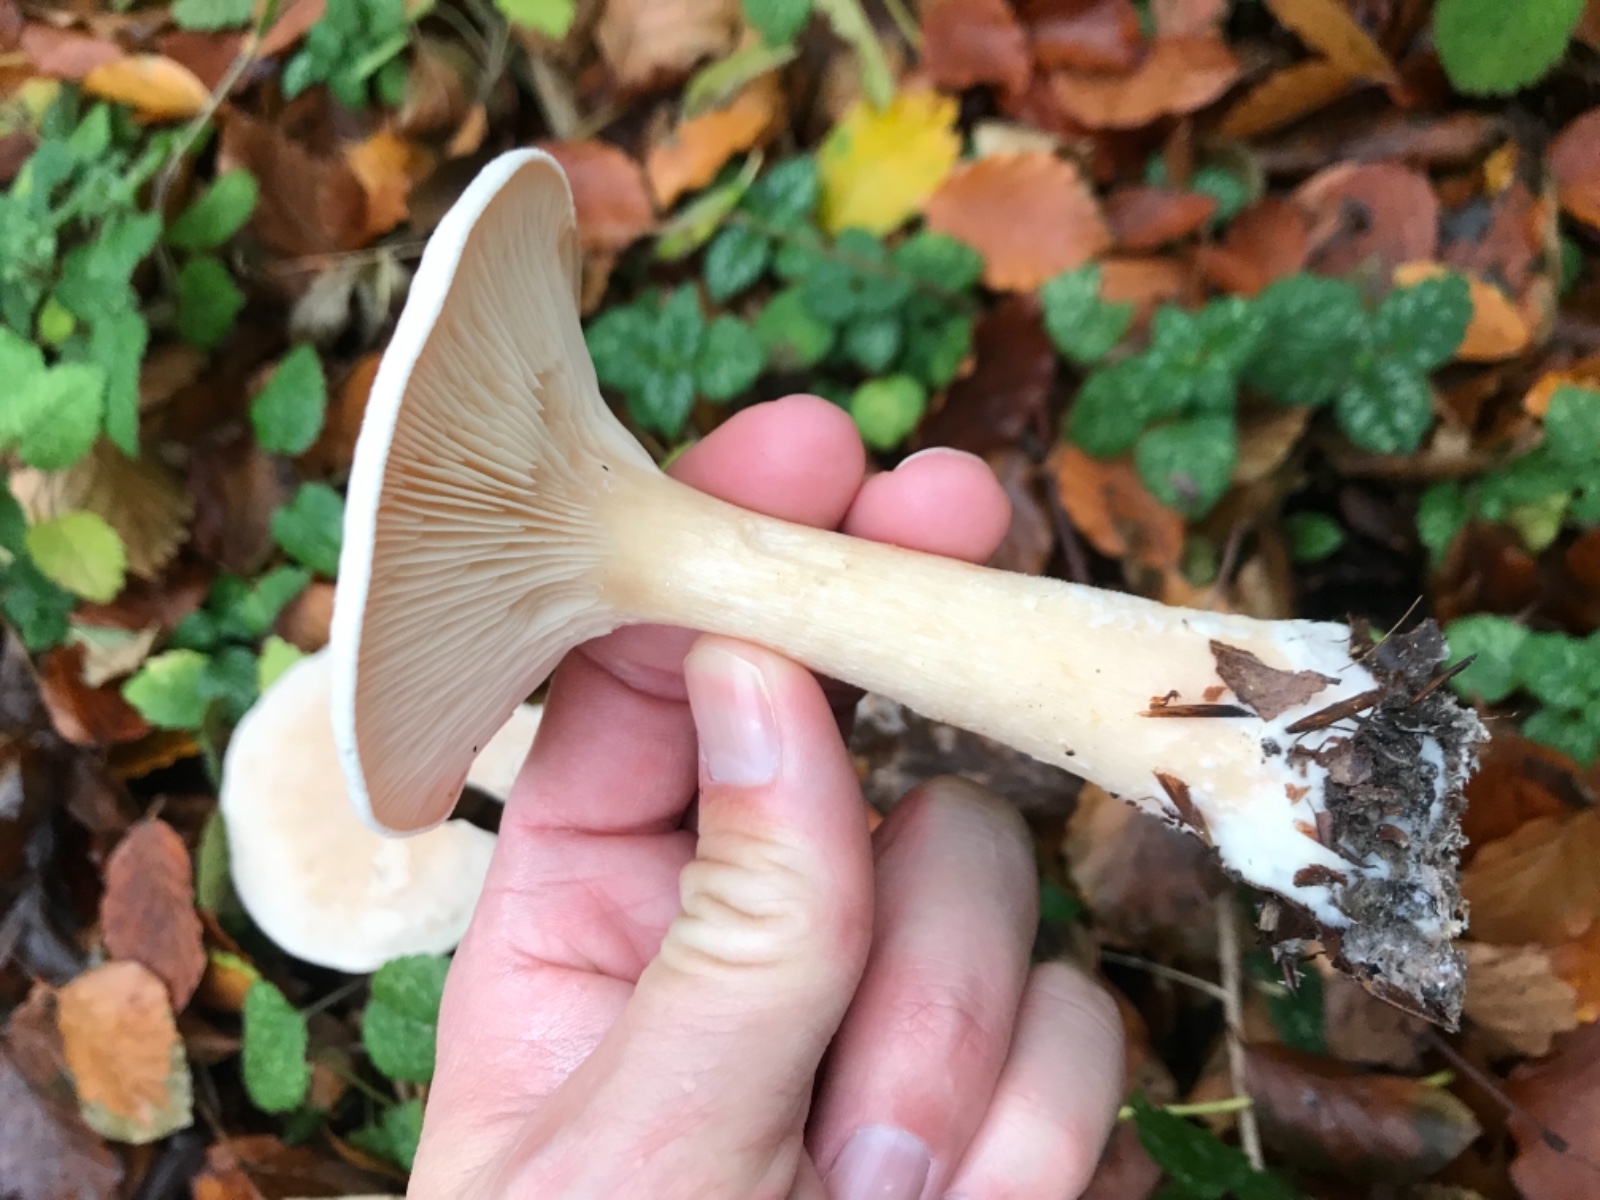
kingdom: Fungi
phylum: Basidiomycota
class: Agaricomycetes
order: Agaricales
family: Tricholomataceae
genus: Infundibulicybe
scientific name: Infundibulicybe geotropa
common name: stor tragthat
